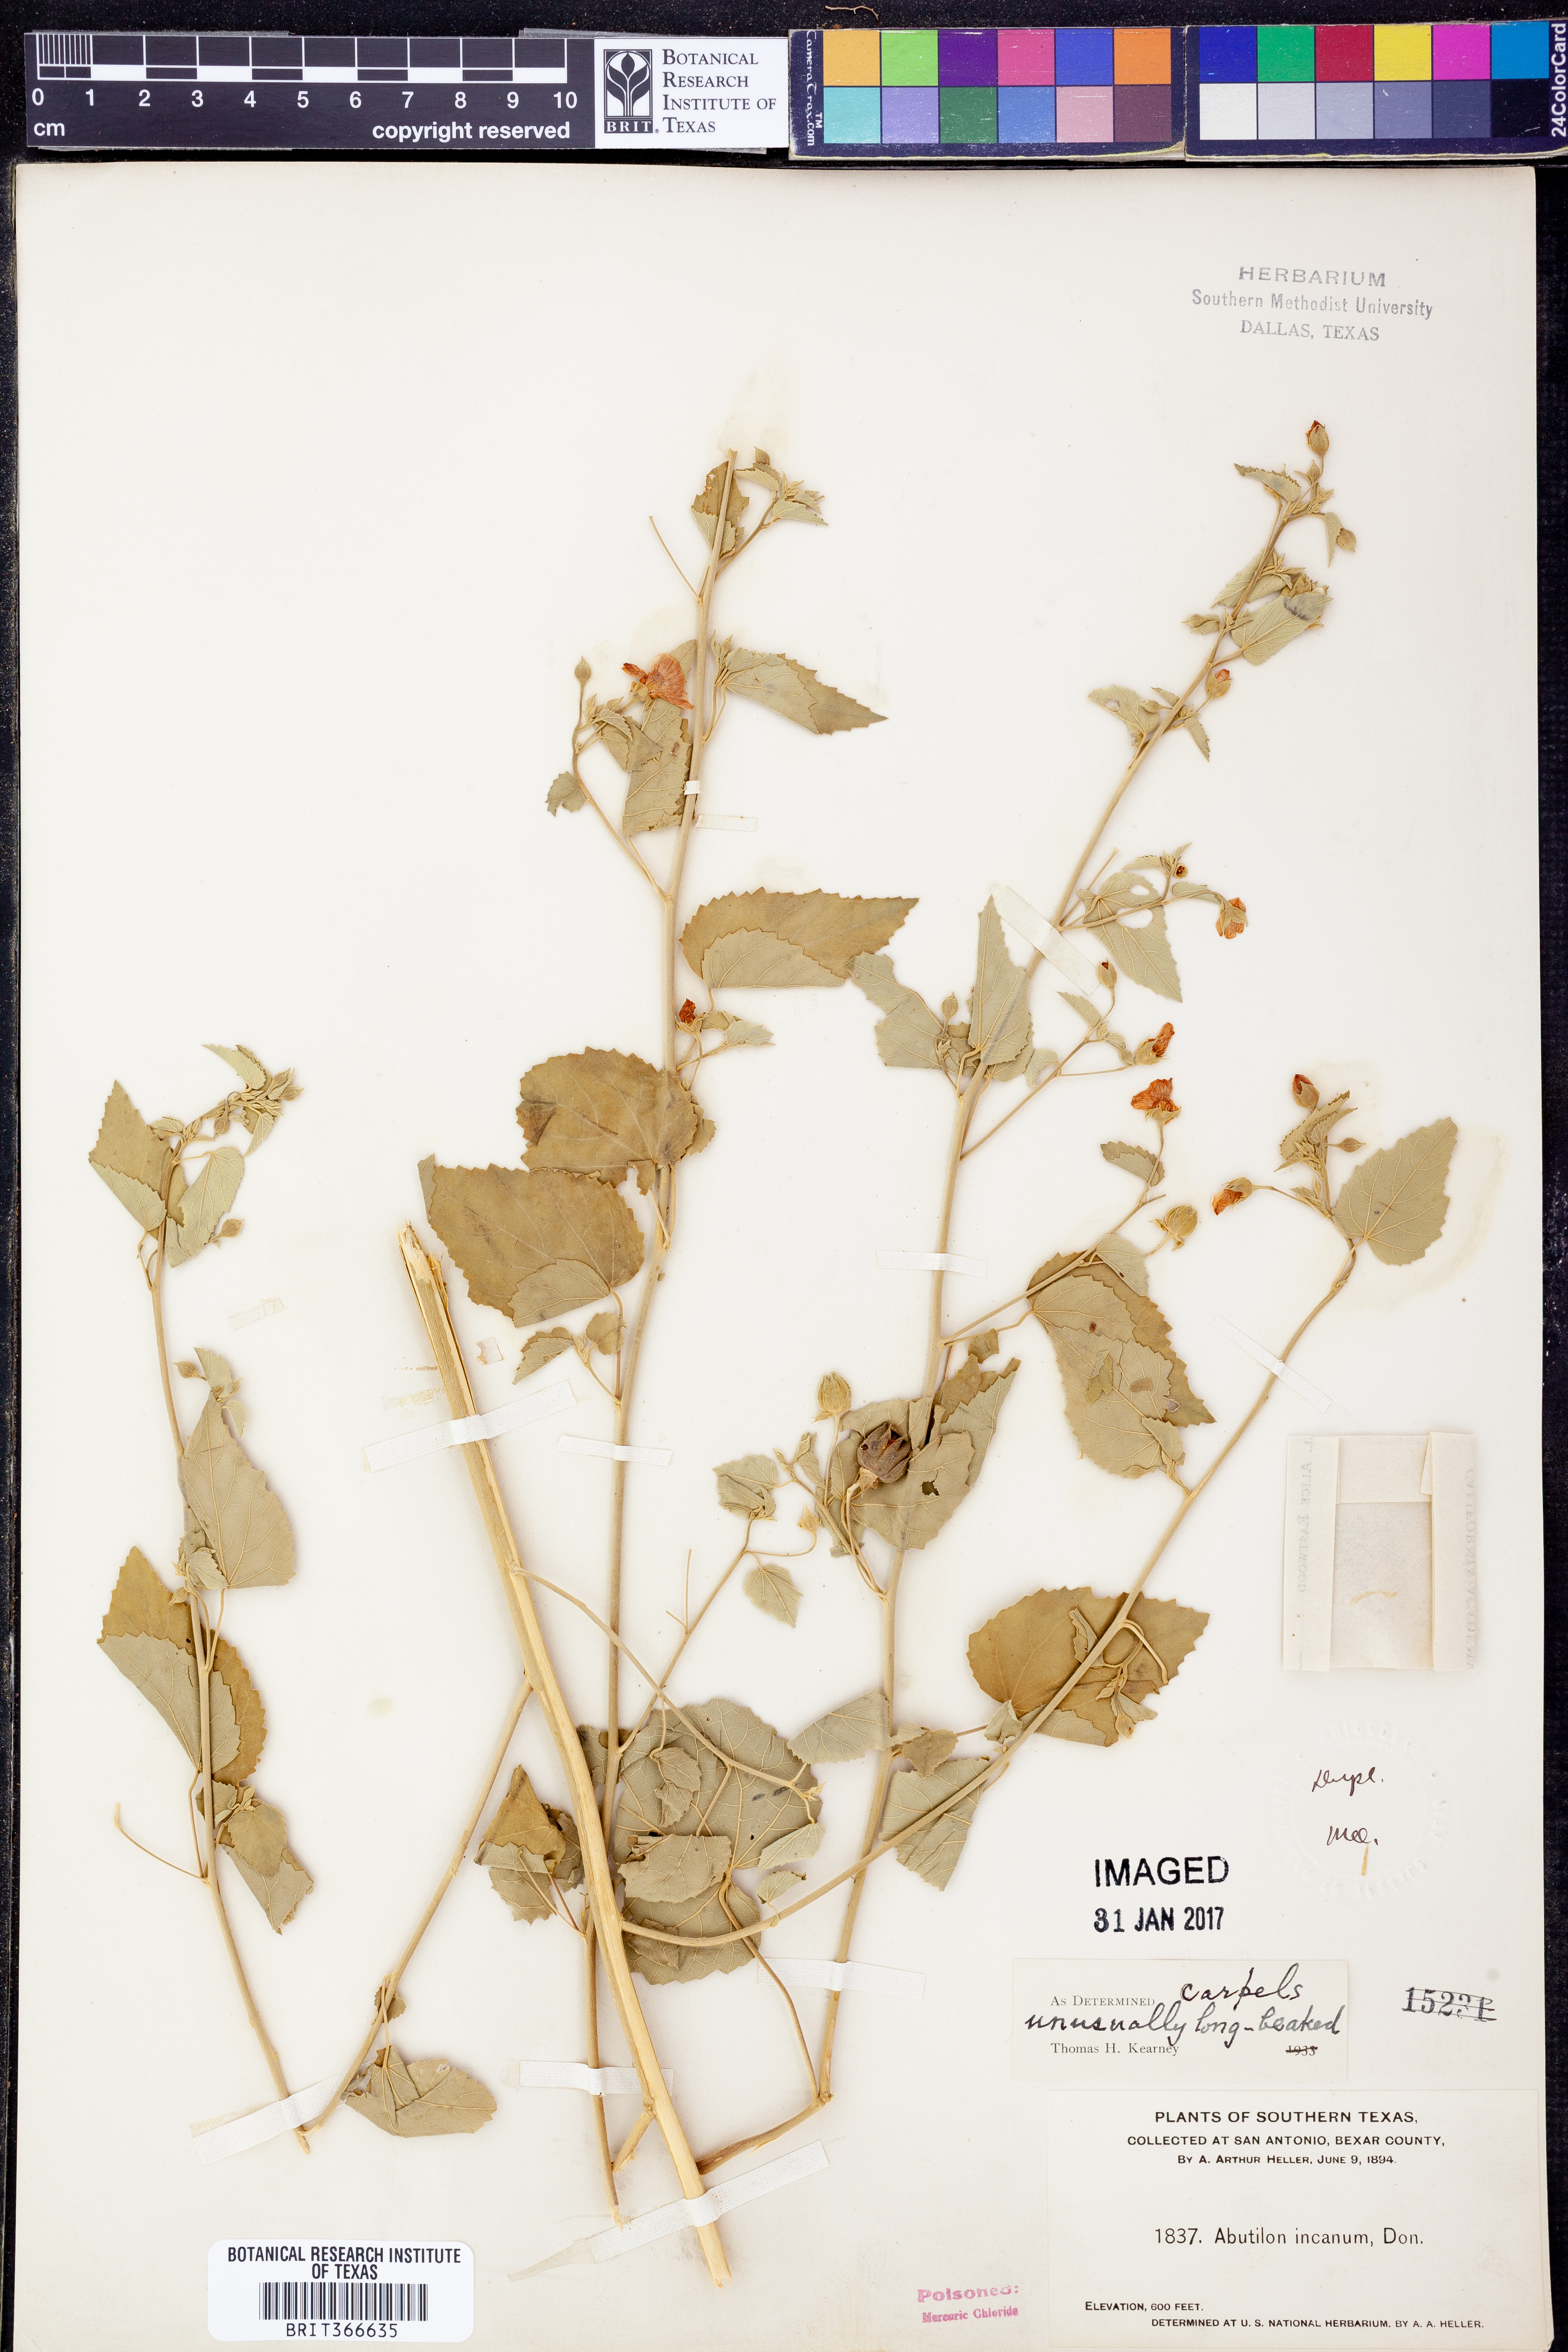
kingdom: Plantae
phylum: Tracheophyta
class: Magnoliopsida
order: Malvales
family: Malvaceae
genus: Abutilon
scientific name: Abutilon incanum
